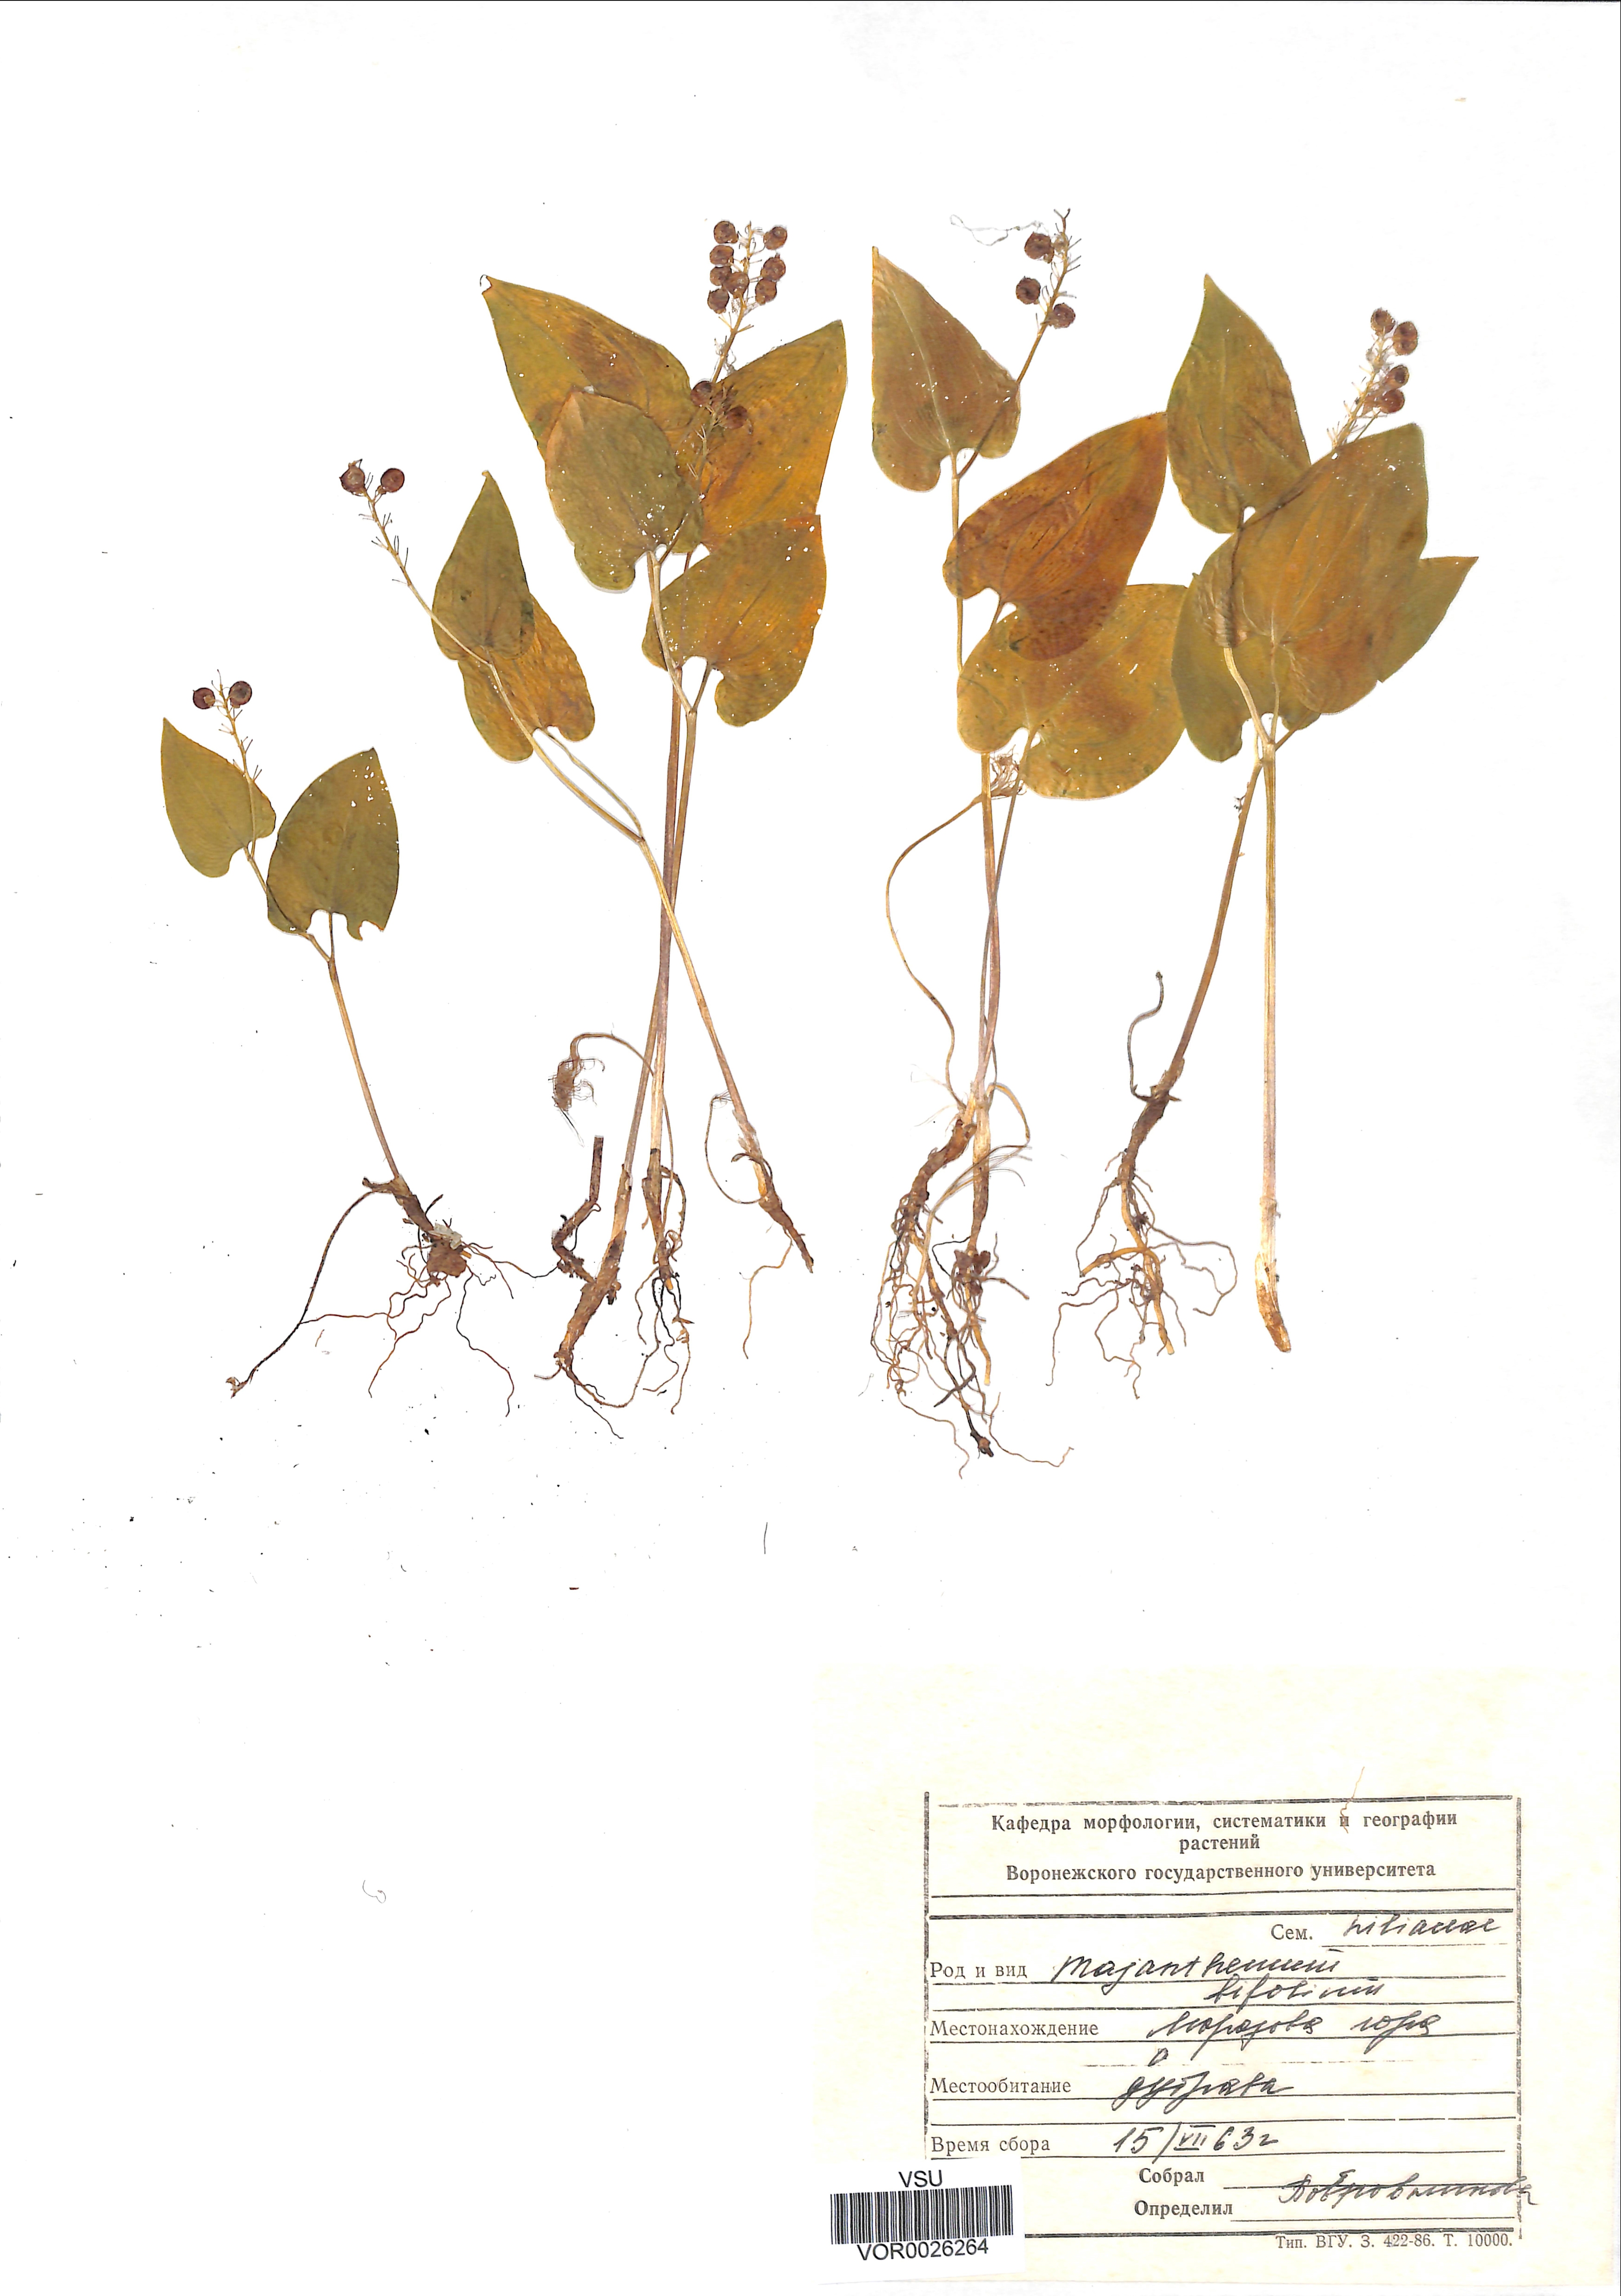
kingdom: Plantae
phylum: Tracheophyta
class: Liliopsida
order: Asparagales
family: Asparagaceae
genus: Maianthemum
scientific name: Maianthemum bifolium
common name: May lily
